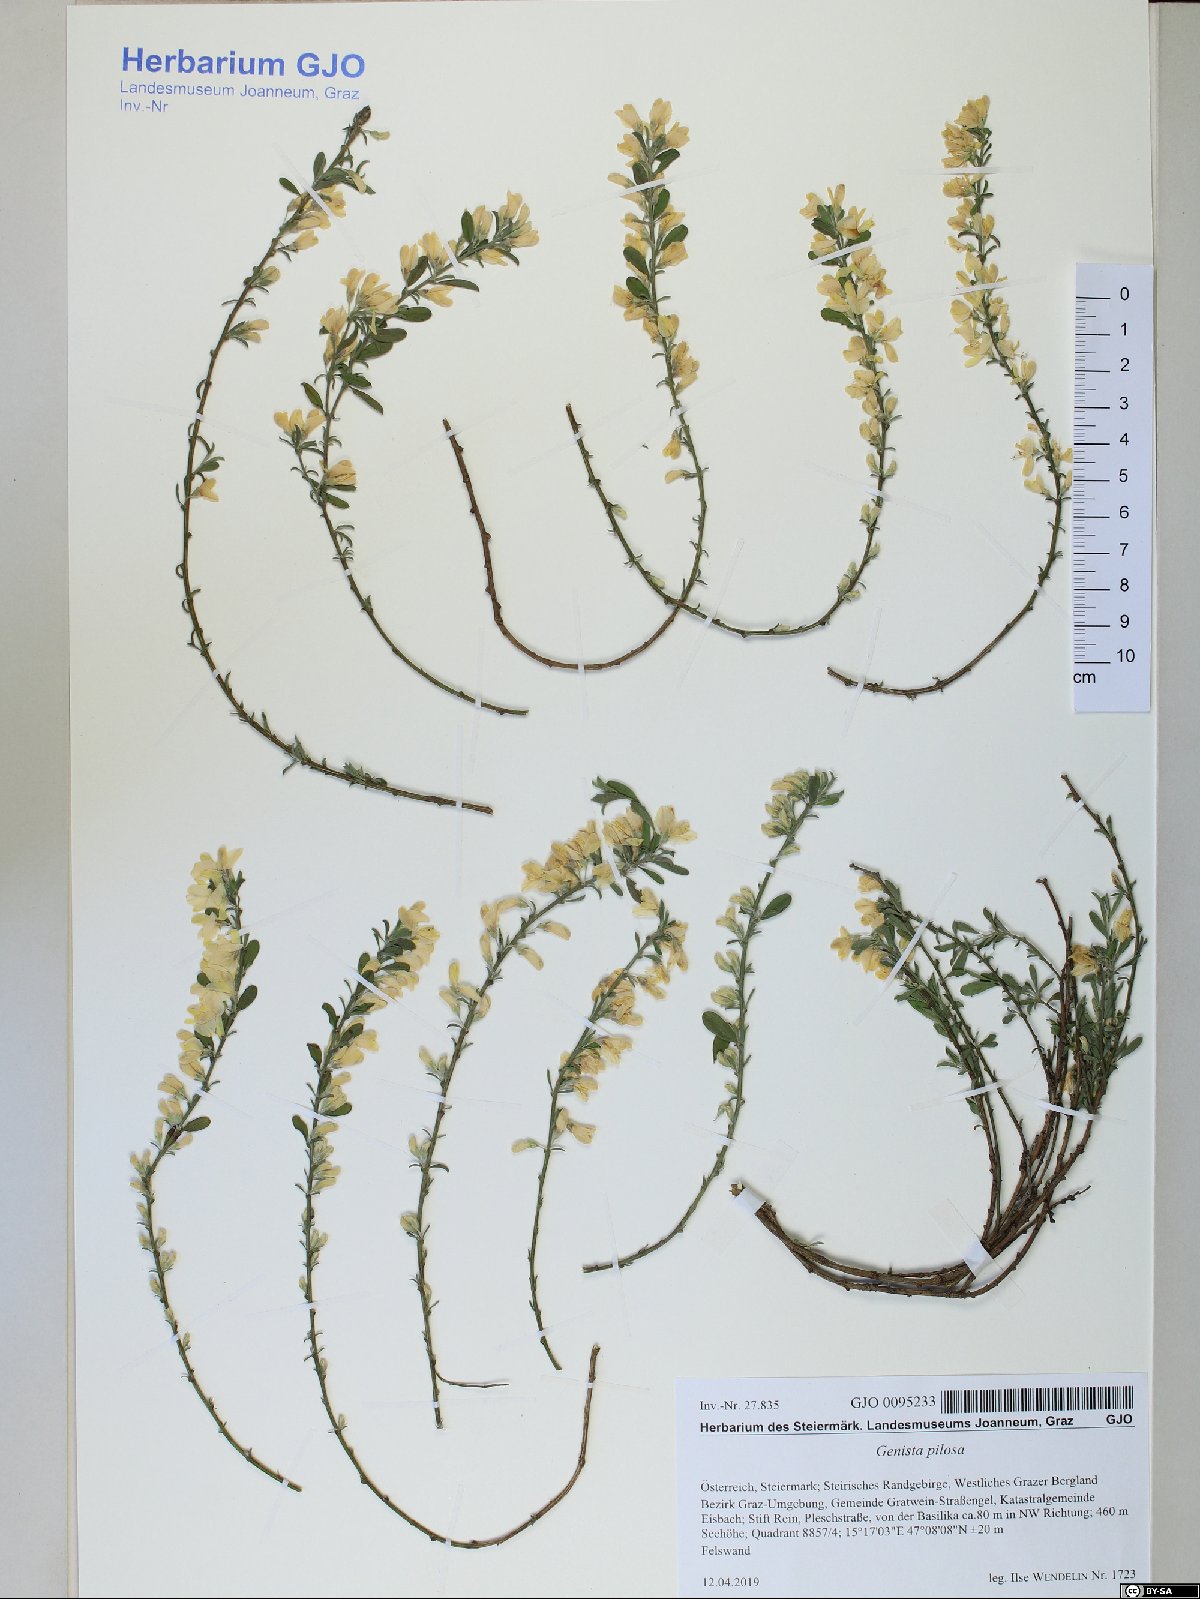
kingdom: Plantae
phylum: Tracheophyta
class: Magnoliopsida
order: Fabales
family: Fabaceae
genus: Genista
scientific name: Genista pilosa
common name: Hairy greenweed
